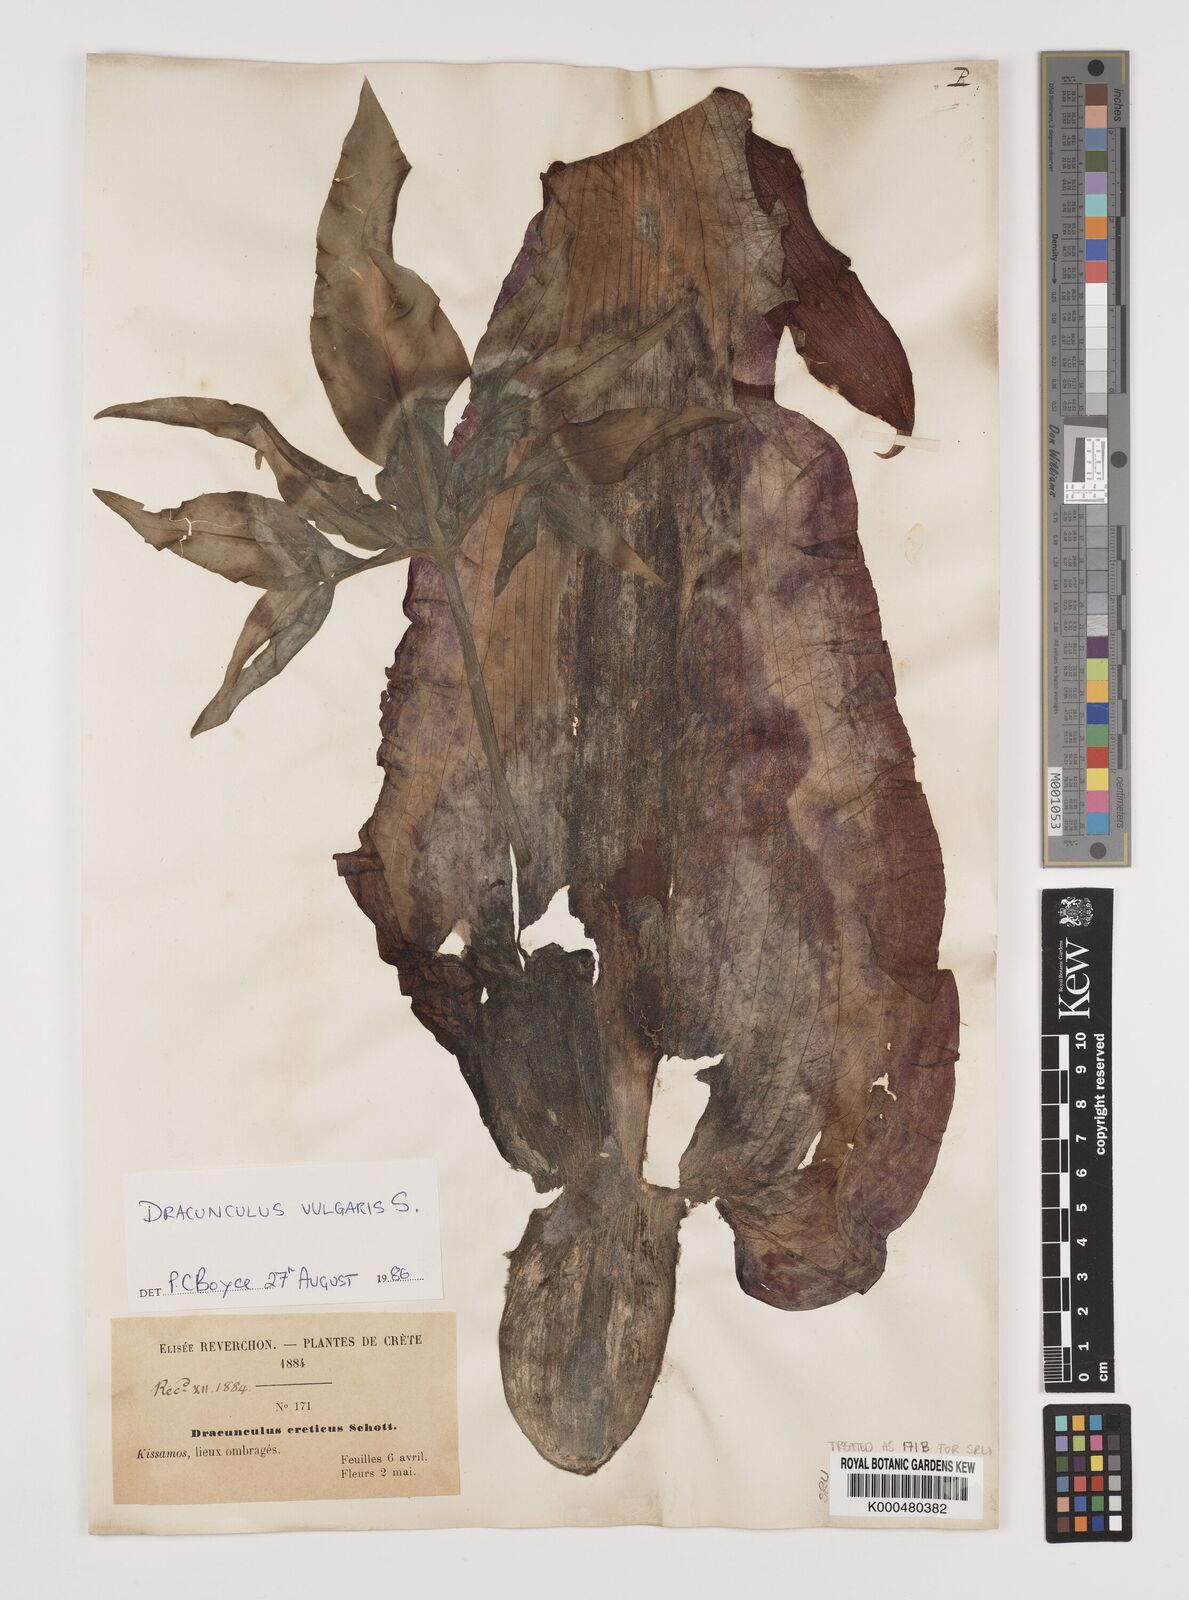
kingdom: Plantae
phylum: Tracheophyta
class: Liliopsida
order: Alismatales
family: Araceae
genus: Dracunculus
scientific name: Dracunculus vulgaris
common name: Dragon arum
